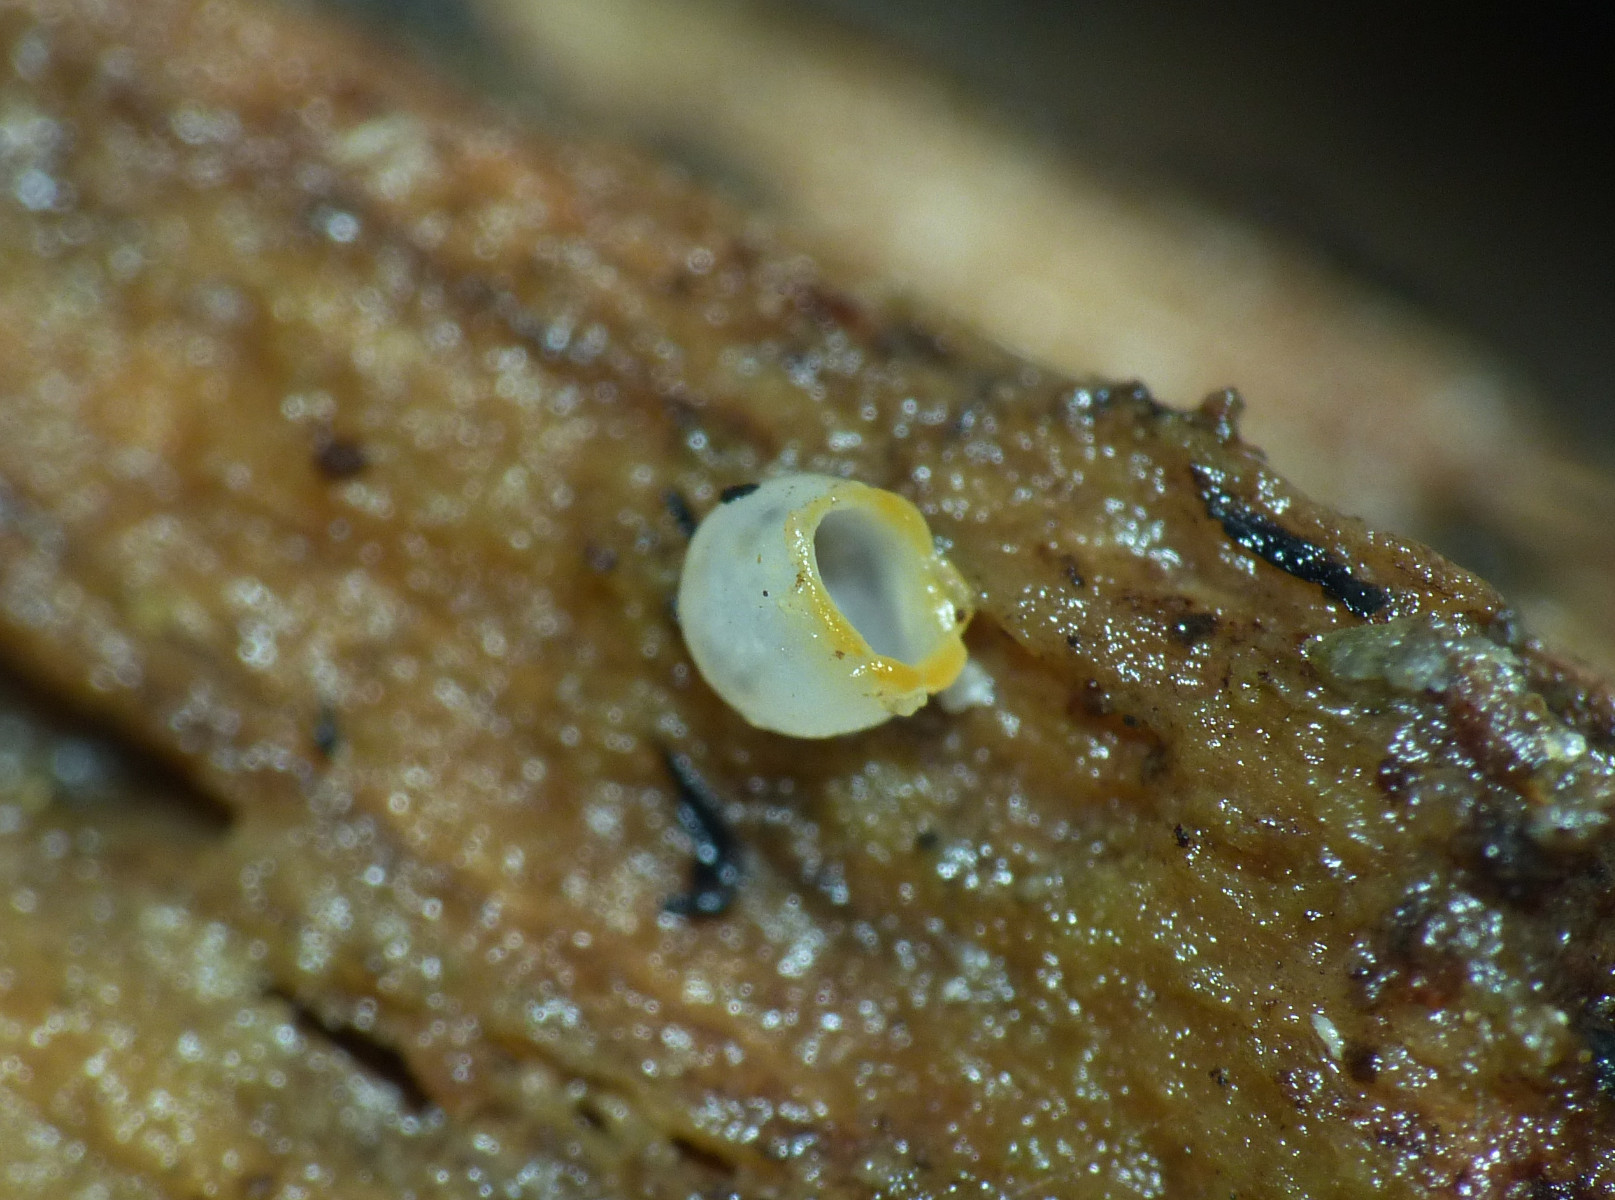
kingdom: Fungi
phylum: Basidiomycota
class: Agaricomycetes
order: Geastrales
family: Geastraceae
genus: Sphaerobolus
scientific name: Sphaerobolus stellatus
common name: bombekaster
